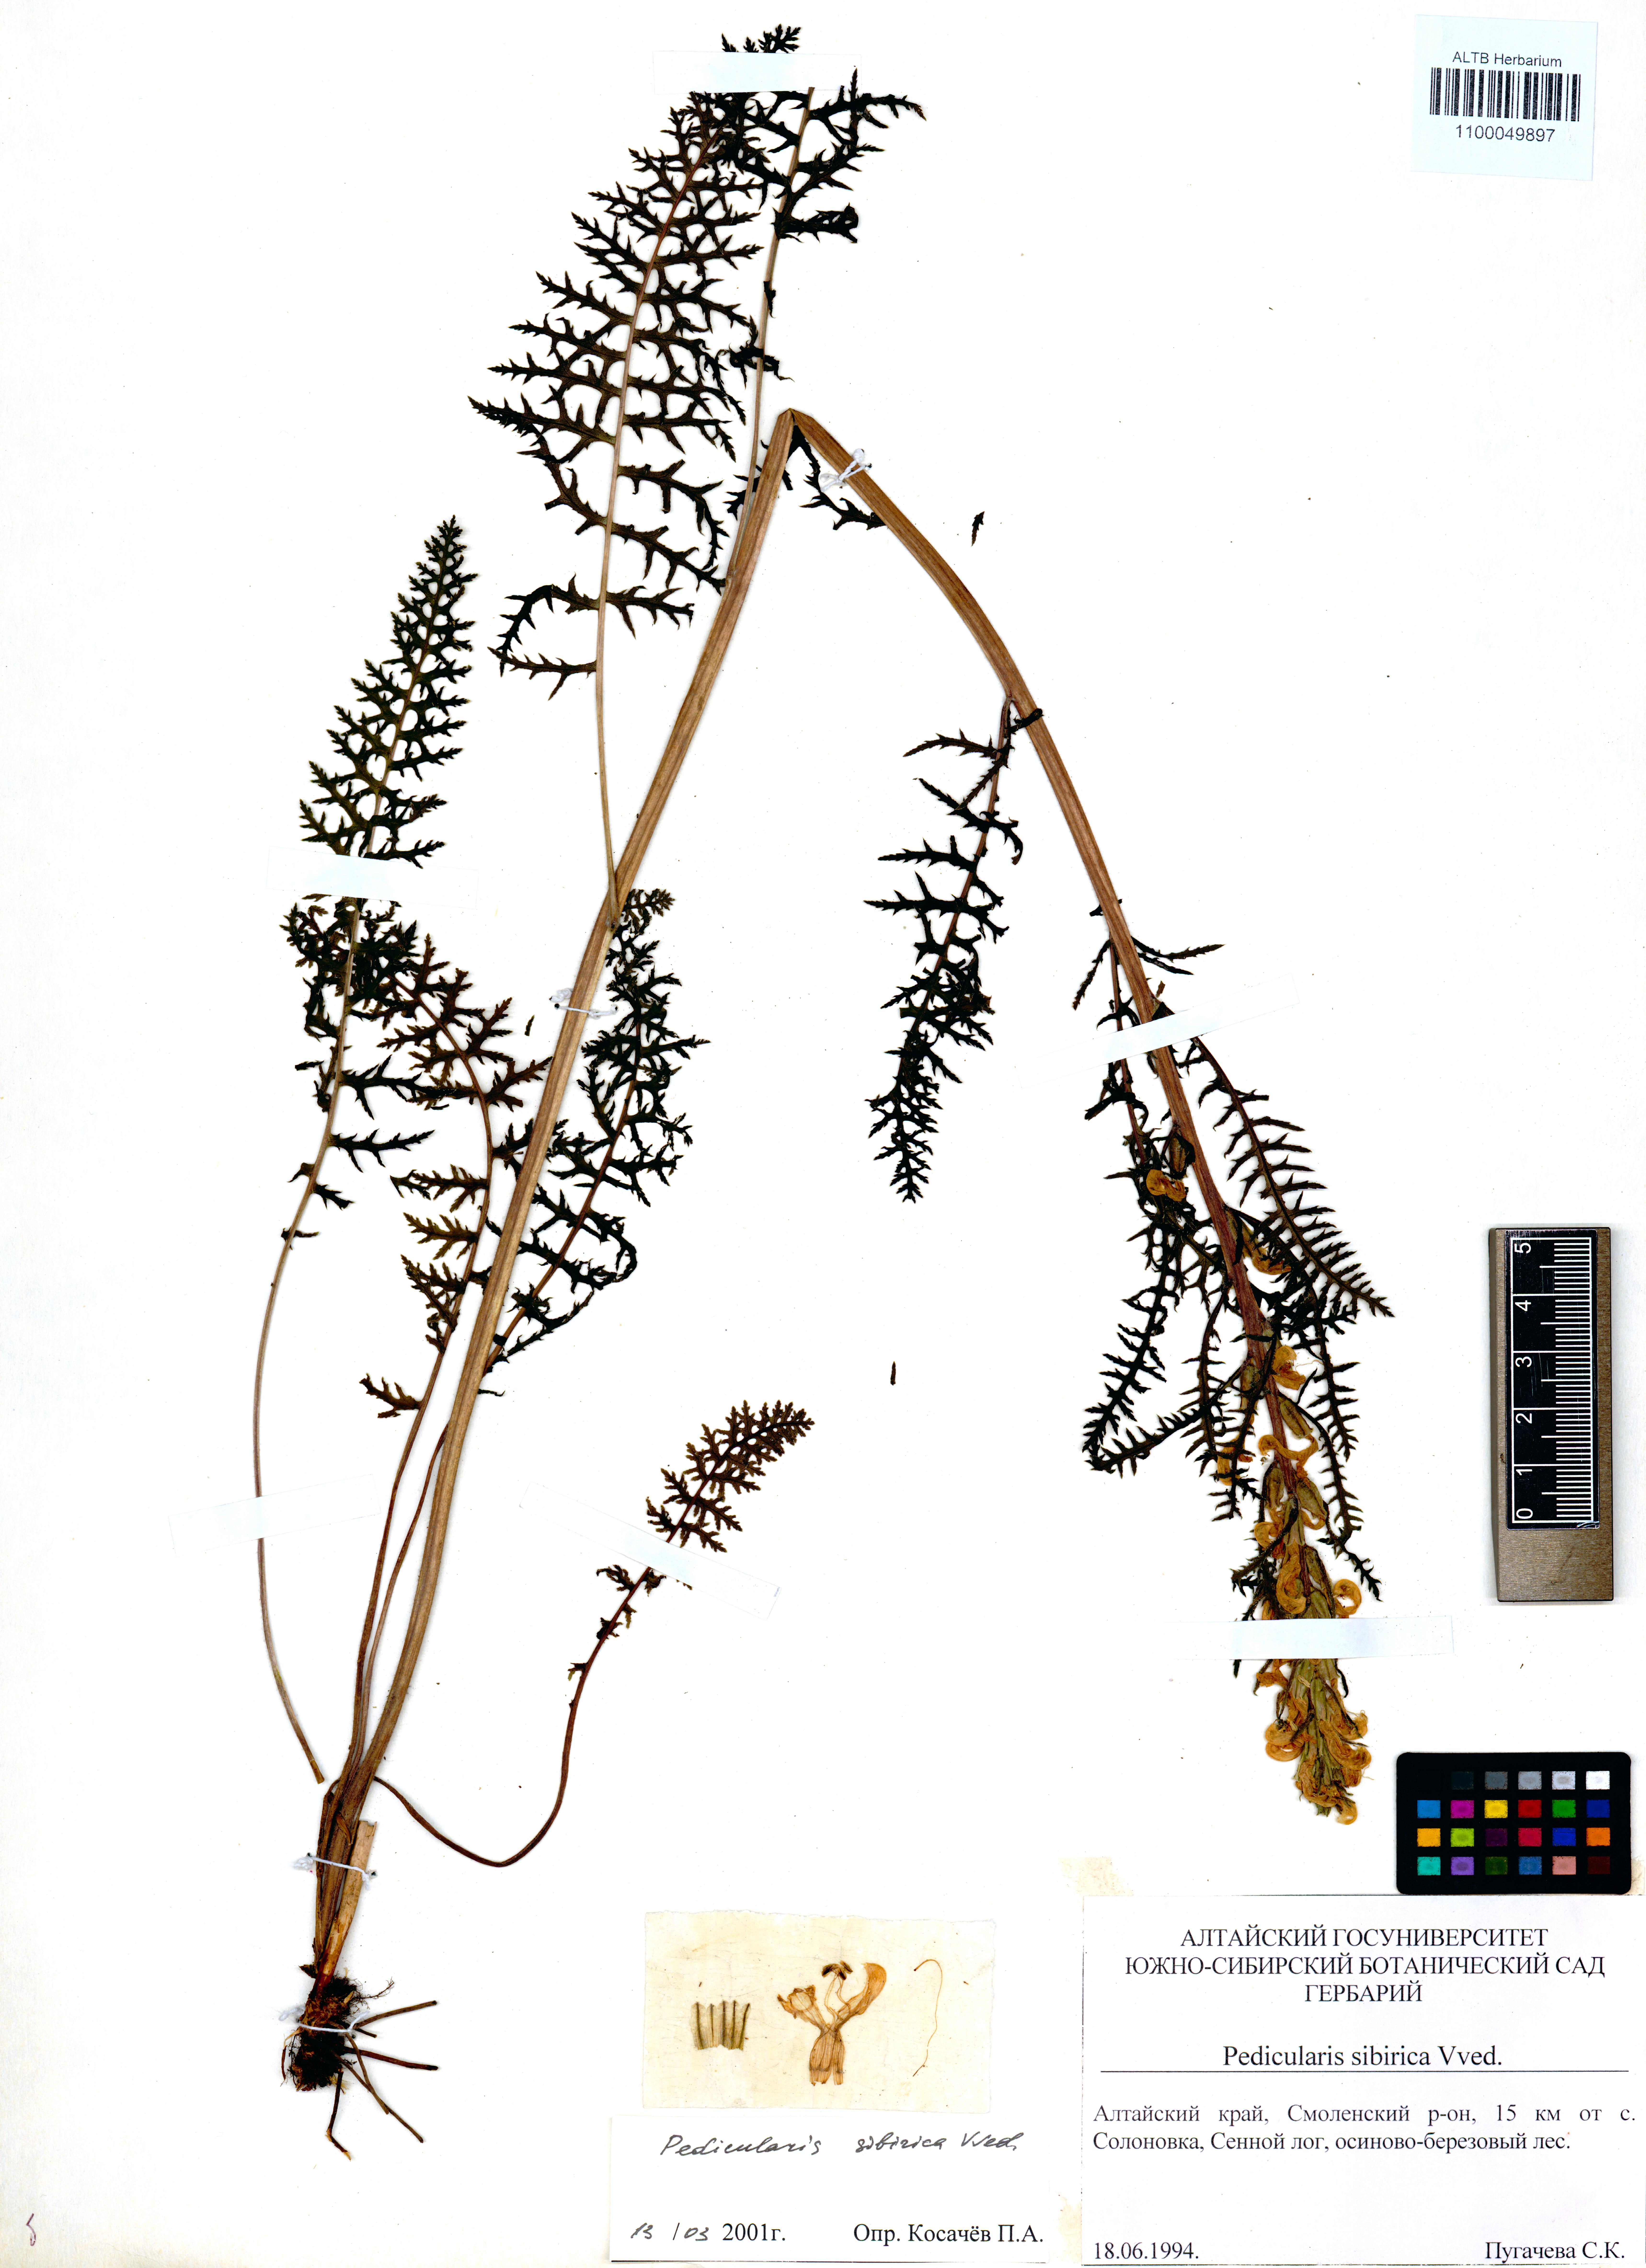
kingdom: Plantae
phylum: Tracheophyta
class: Magnoliopsida
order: Lamiales
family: Orobanchaceae
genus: Pedicularis
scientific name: Pedicularis sibirica
